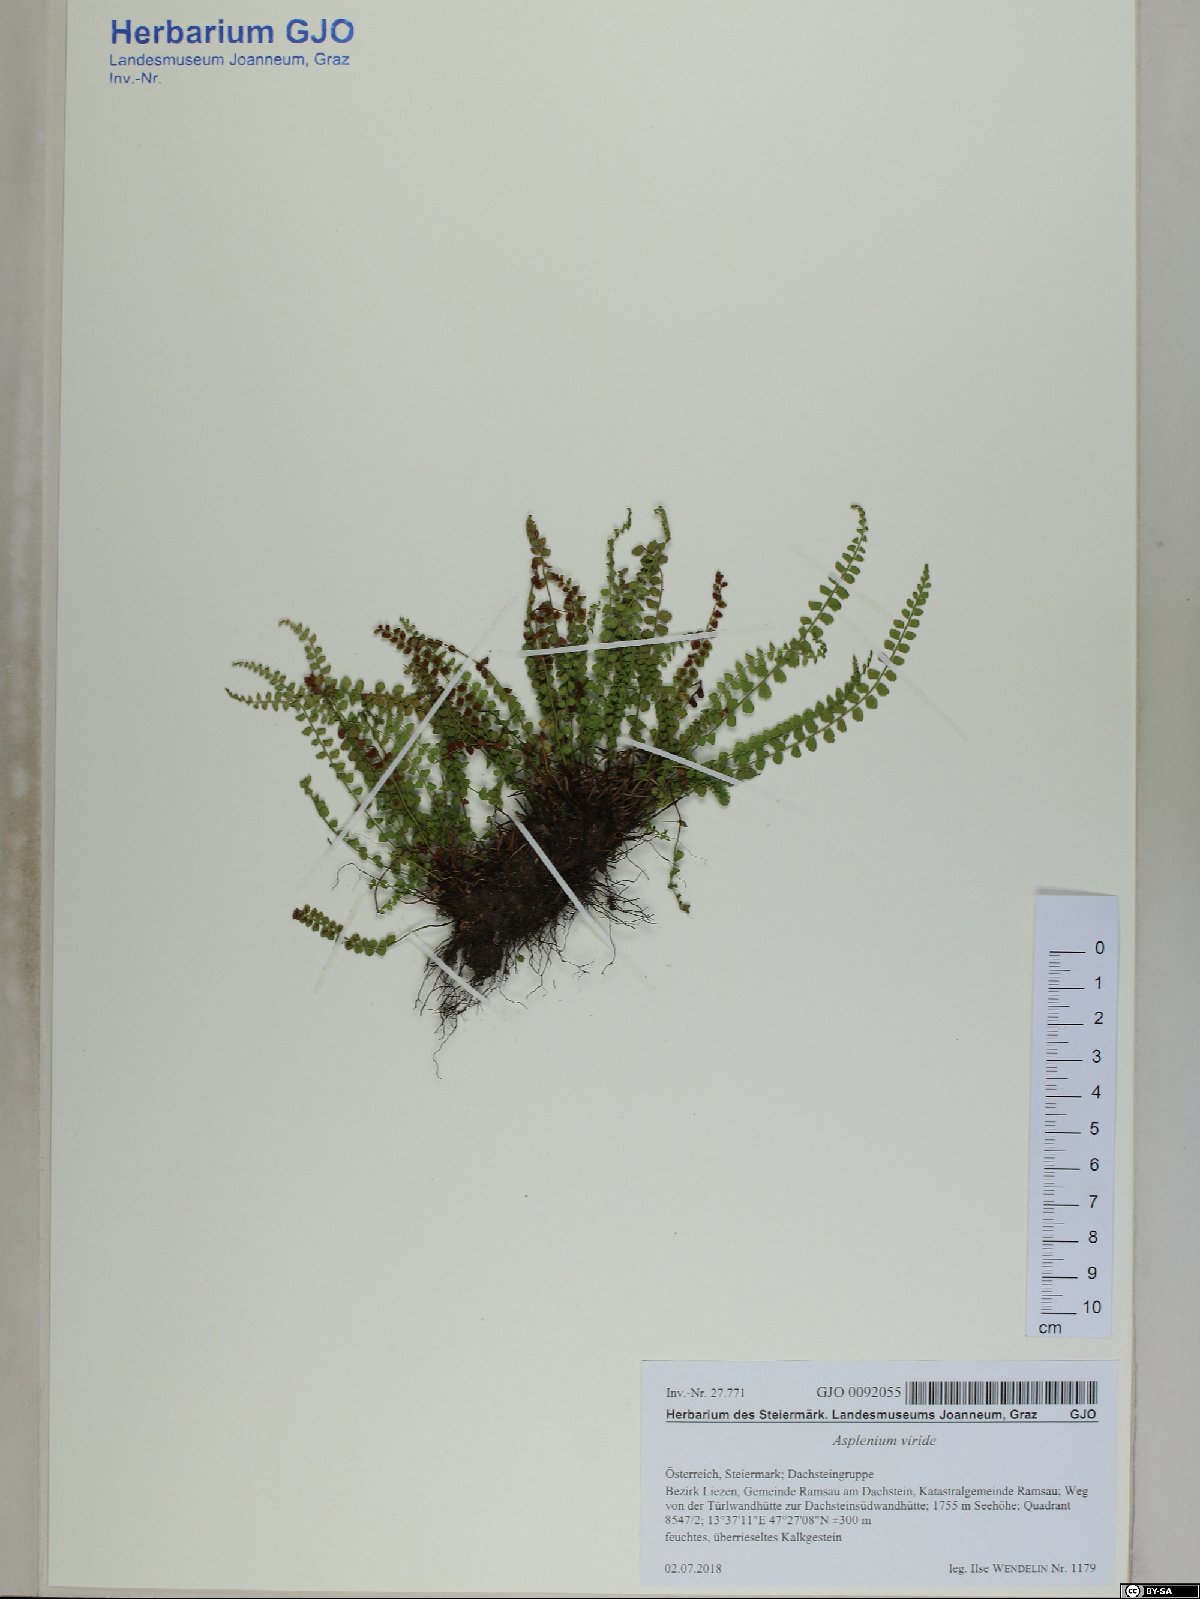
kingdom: Plantae
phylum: Tracheophyta
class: Polypodiopsida
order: Polypodiales
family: Aspleniaceae
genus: Asplenium
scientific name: Asplenium viride
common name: Green spleenwort
